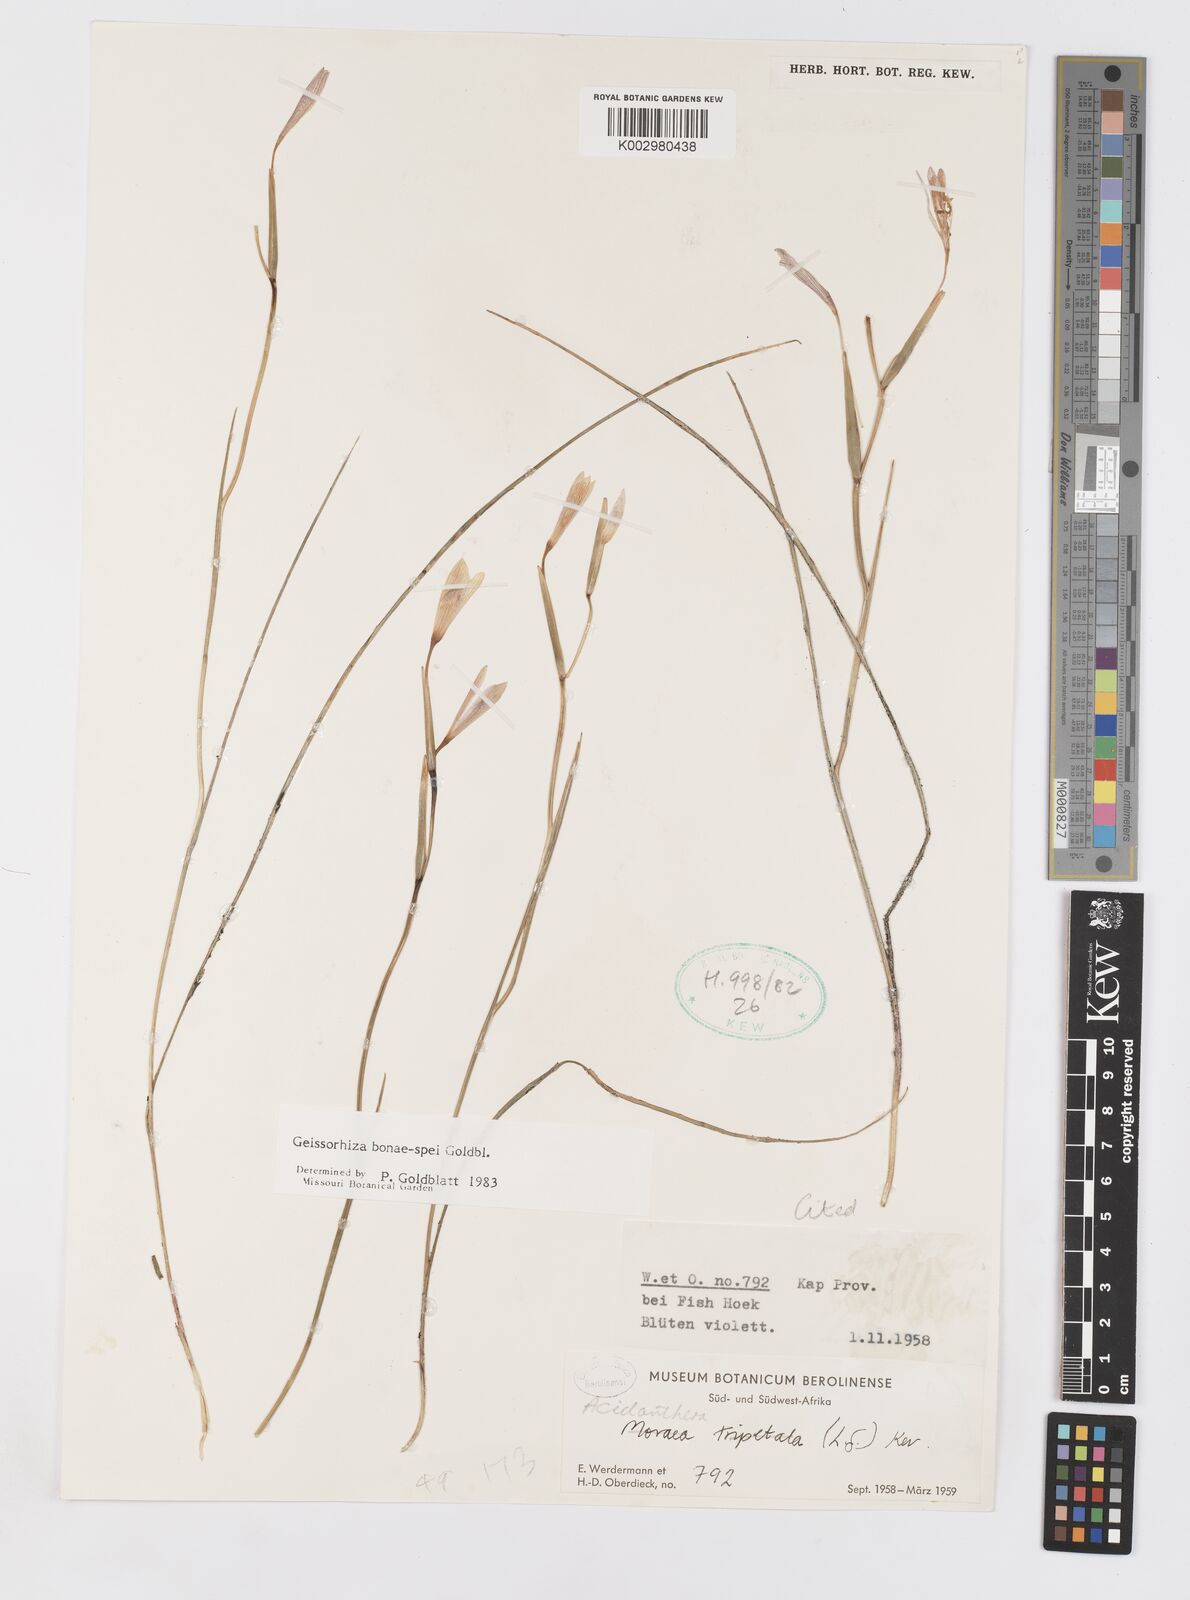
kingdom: Plantae
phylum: Tracheophyta
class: Liliopsida
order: Asparagales
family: Iridaceae
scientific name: Iridaceae
